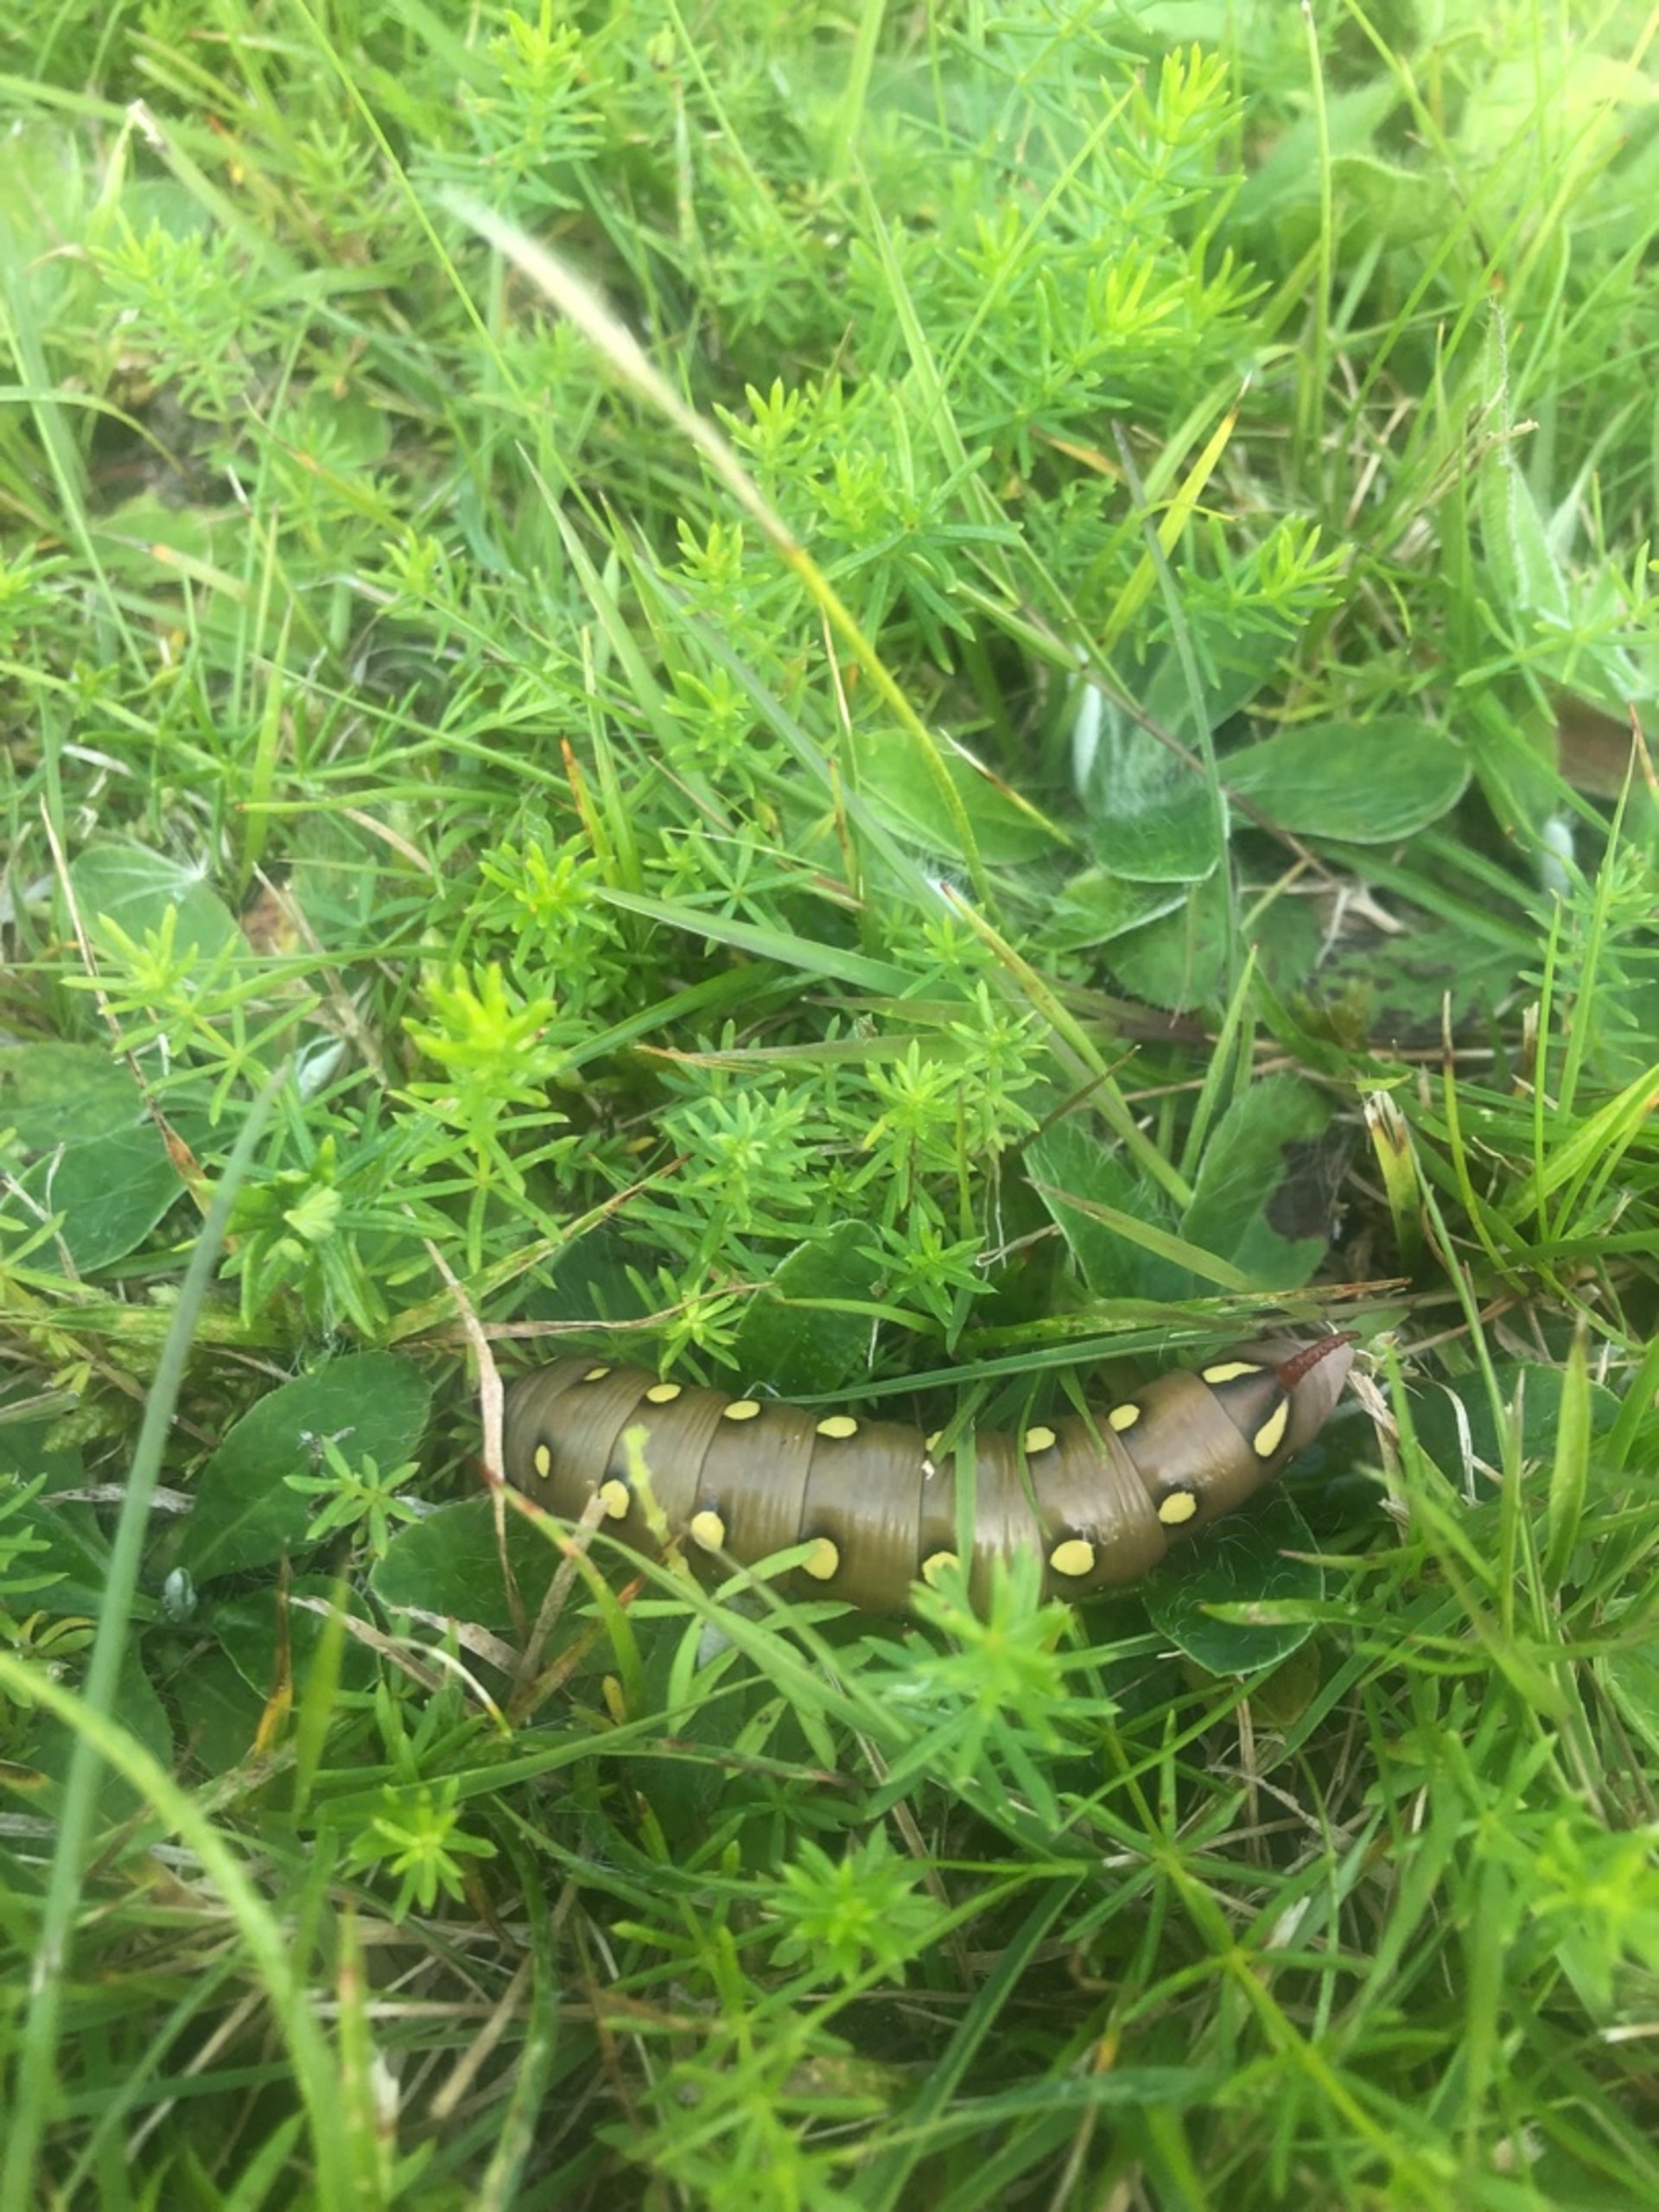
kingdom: Animalia
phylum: Arthropoda
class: Insecta
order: Lepidoptera
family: Sphingidae
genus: Hyles
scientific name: Hyles gallii
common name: Snerresværmer
